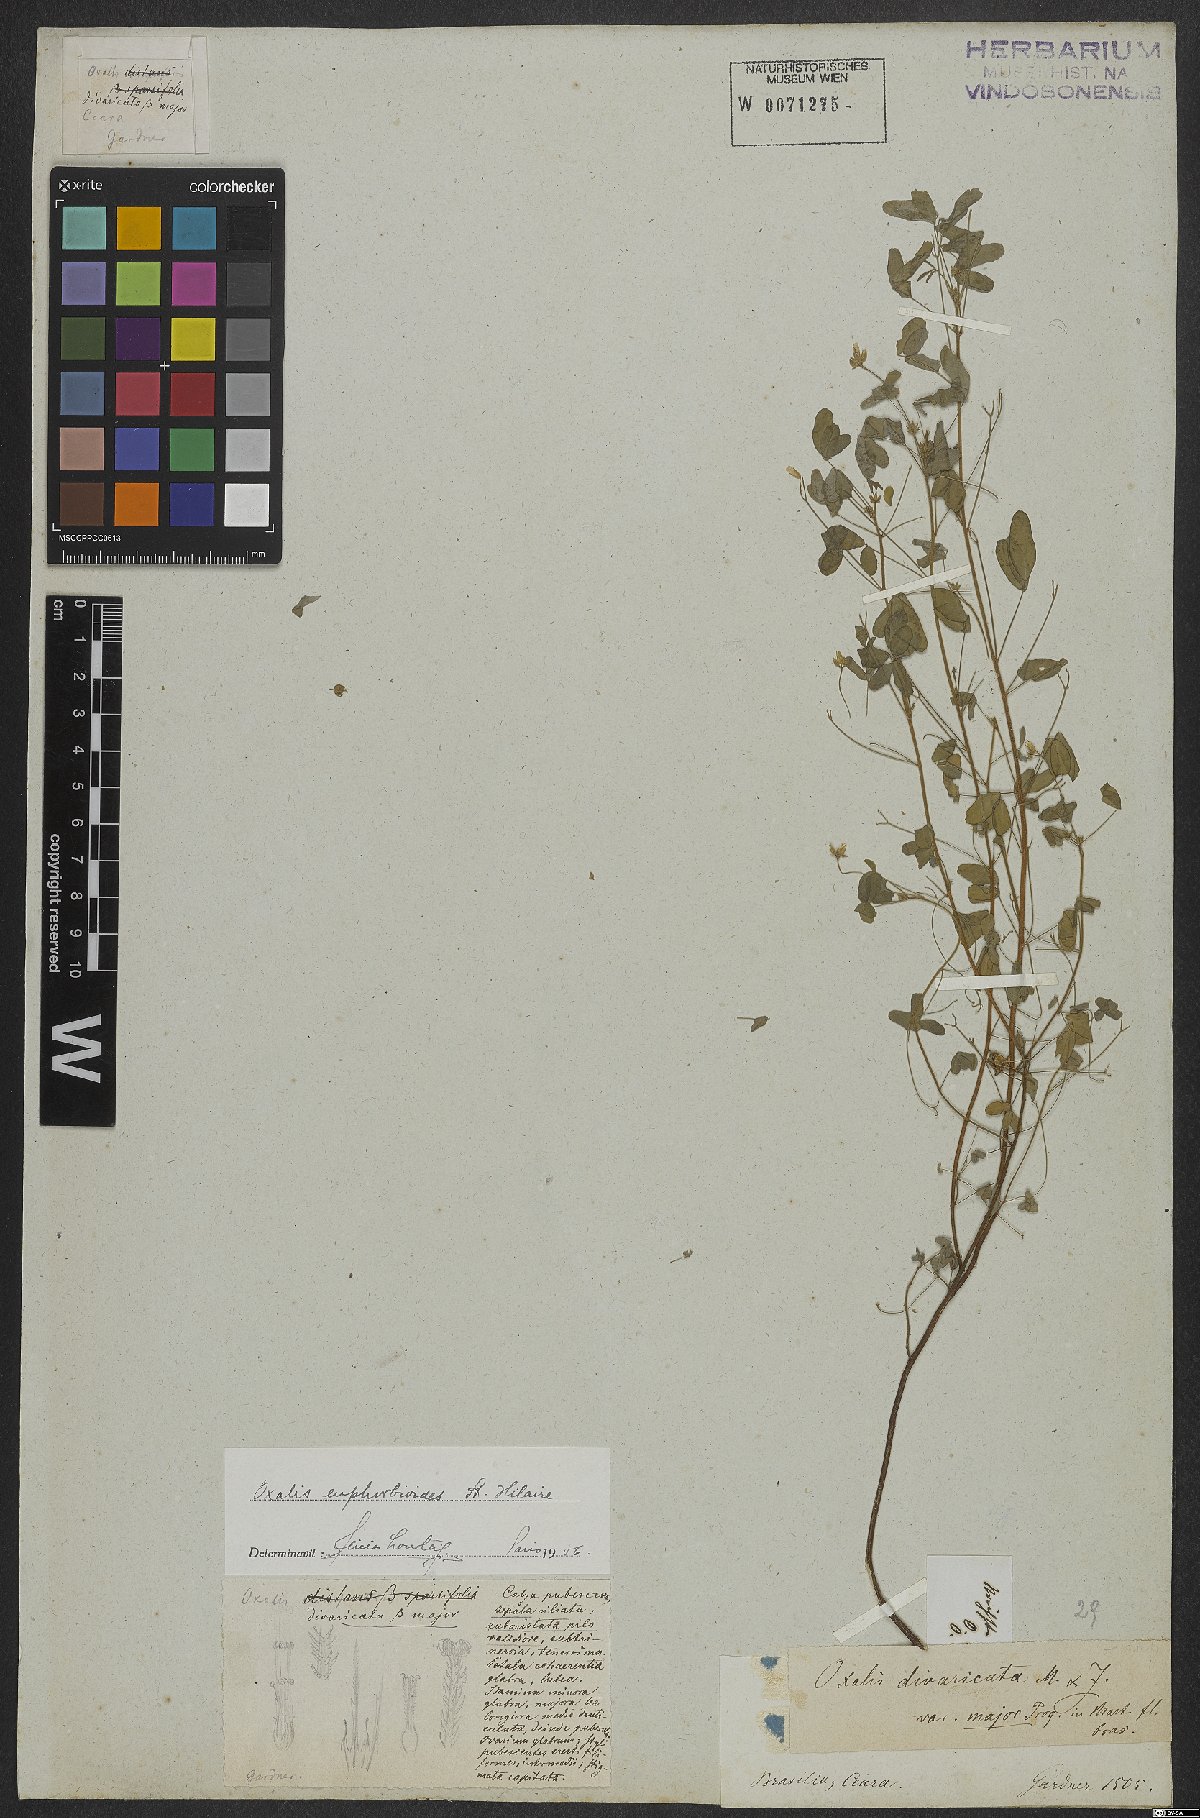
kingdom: Plantae
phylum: Tracheophyta
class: Magnoliopsida
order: Oxalidales
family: Oxalidaceae
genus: Oxalis
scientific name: Oxalis divaricata
